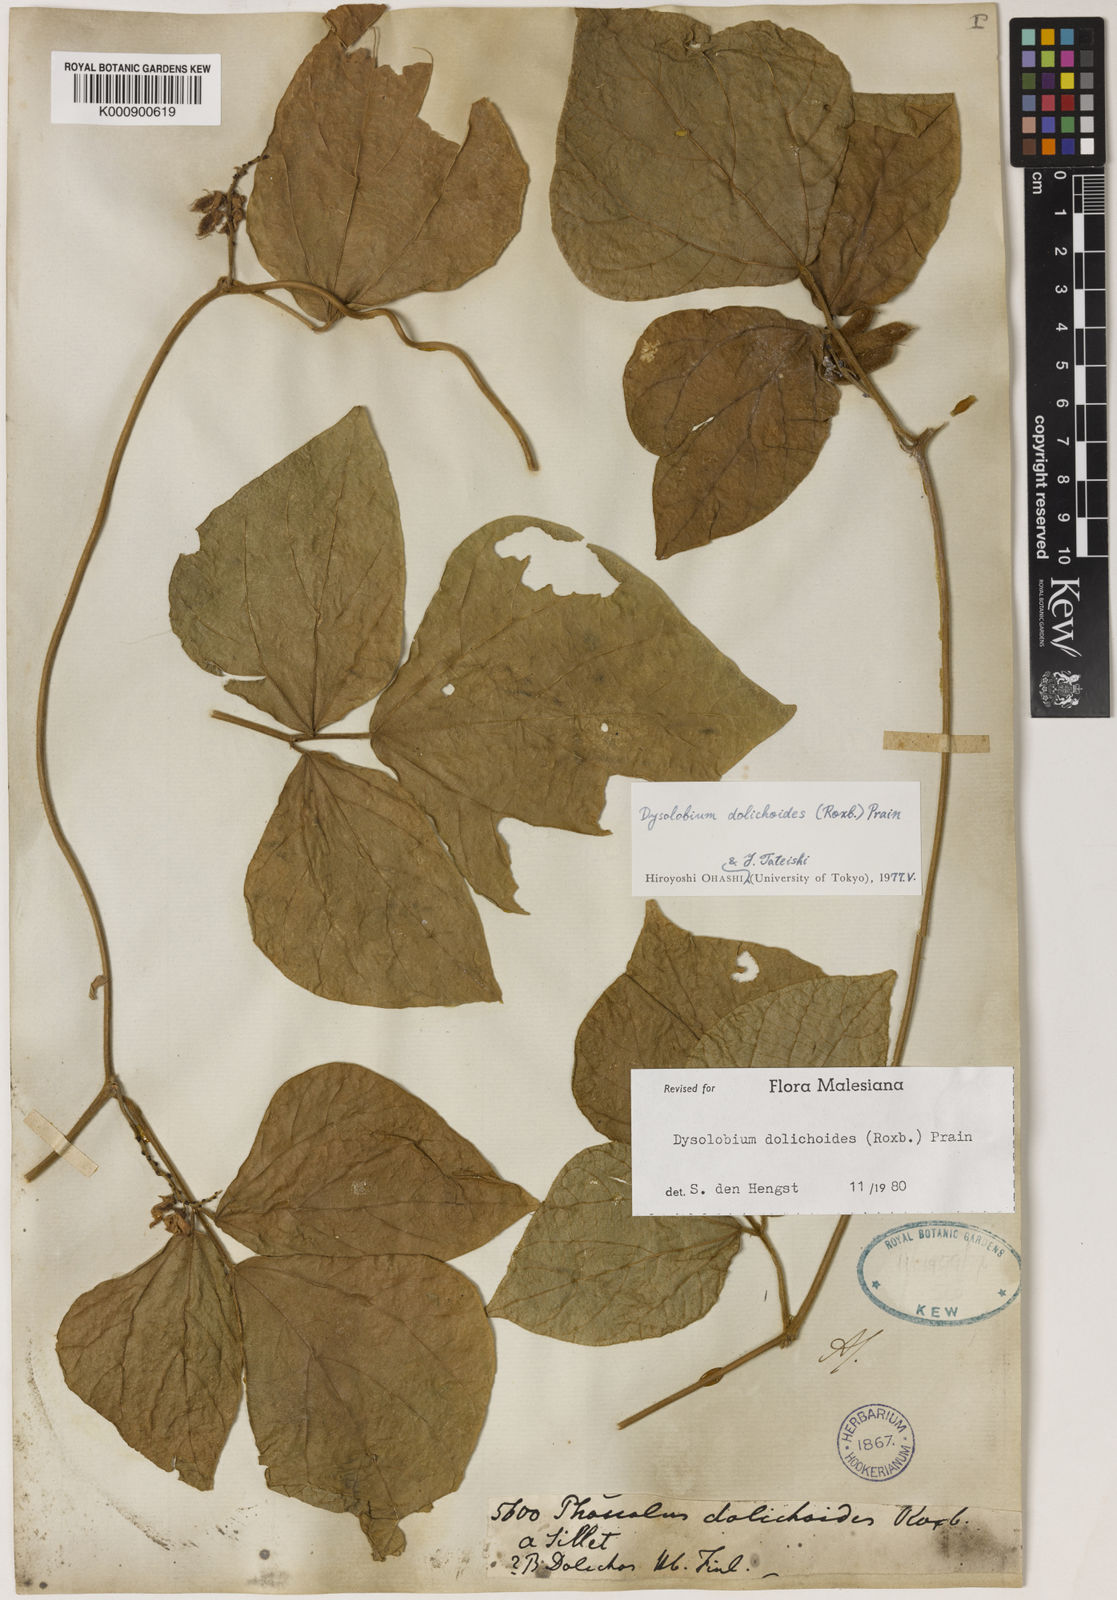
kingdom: Plantae
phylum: Tracheophyta
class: Magnoliopsida
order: Fabales
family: Fabaceae
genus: Dysolobium
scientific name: Dysolobium dolichoides
